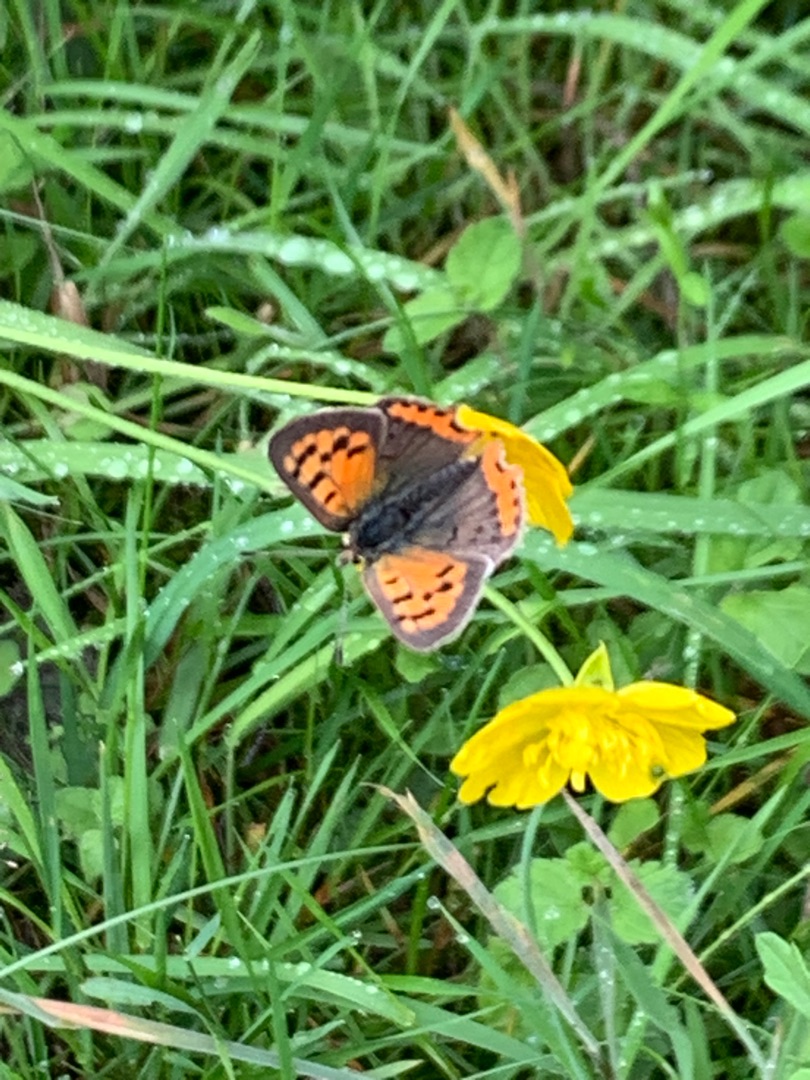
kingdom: Animalia
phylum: Arthropoda
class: Insecta
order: Lepidoptera
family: Lycaenidae
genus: Lycaena
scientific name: Lycaena phlaeas
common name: Lille ildfugl
